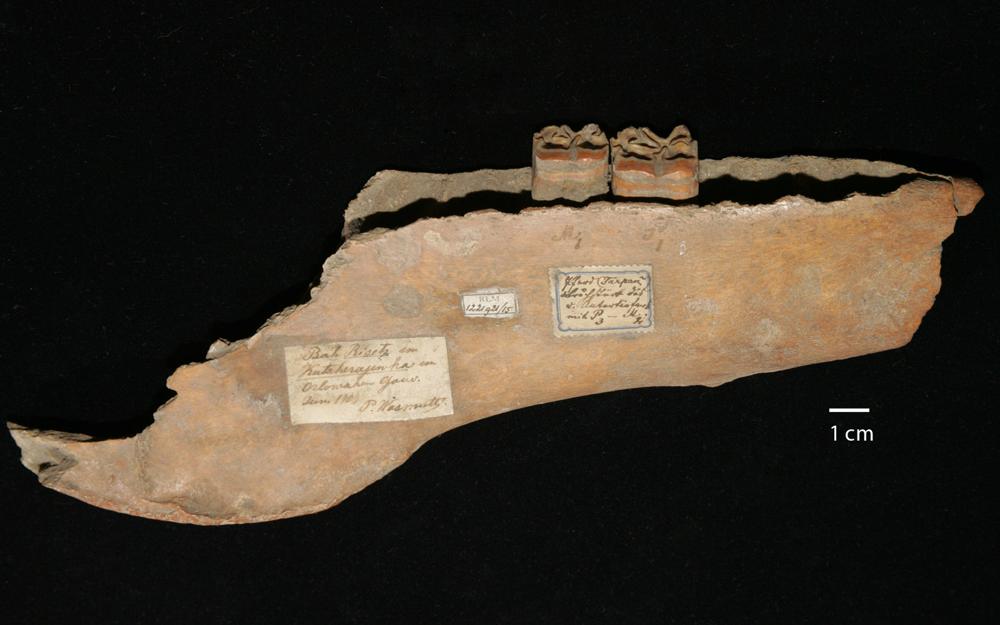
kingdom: Animalia
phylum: Chordata
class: Mammalia
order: Perissodactyla
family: Equidae
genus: Equus
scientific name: Equus ferus
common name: Russian wild horse
